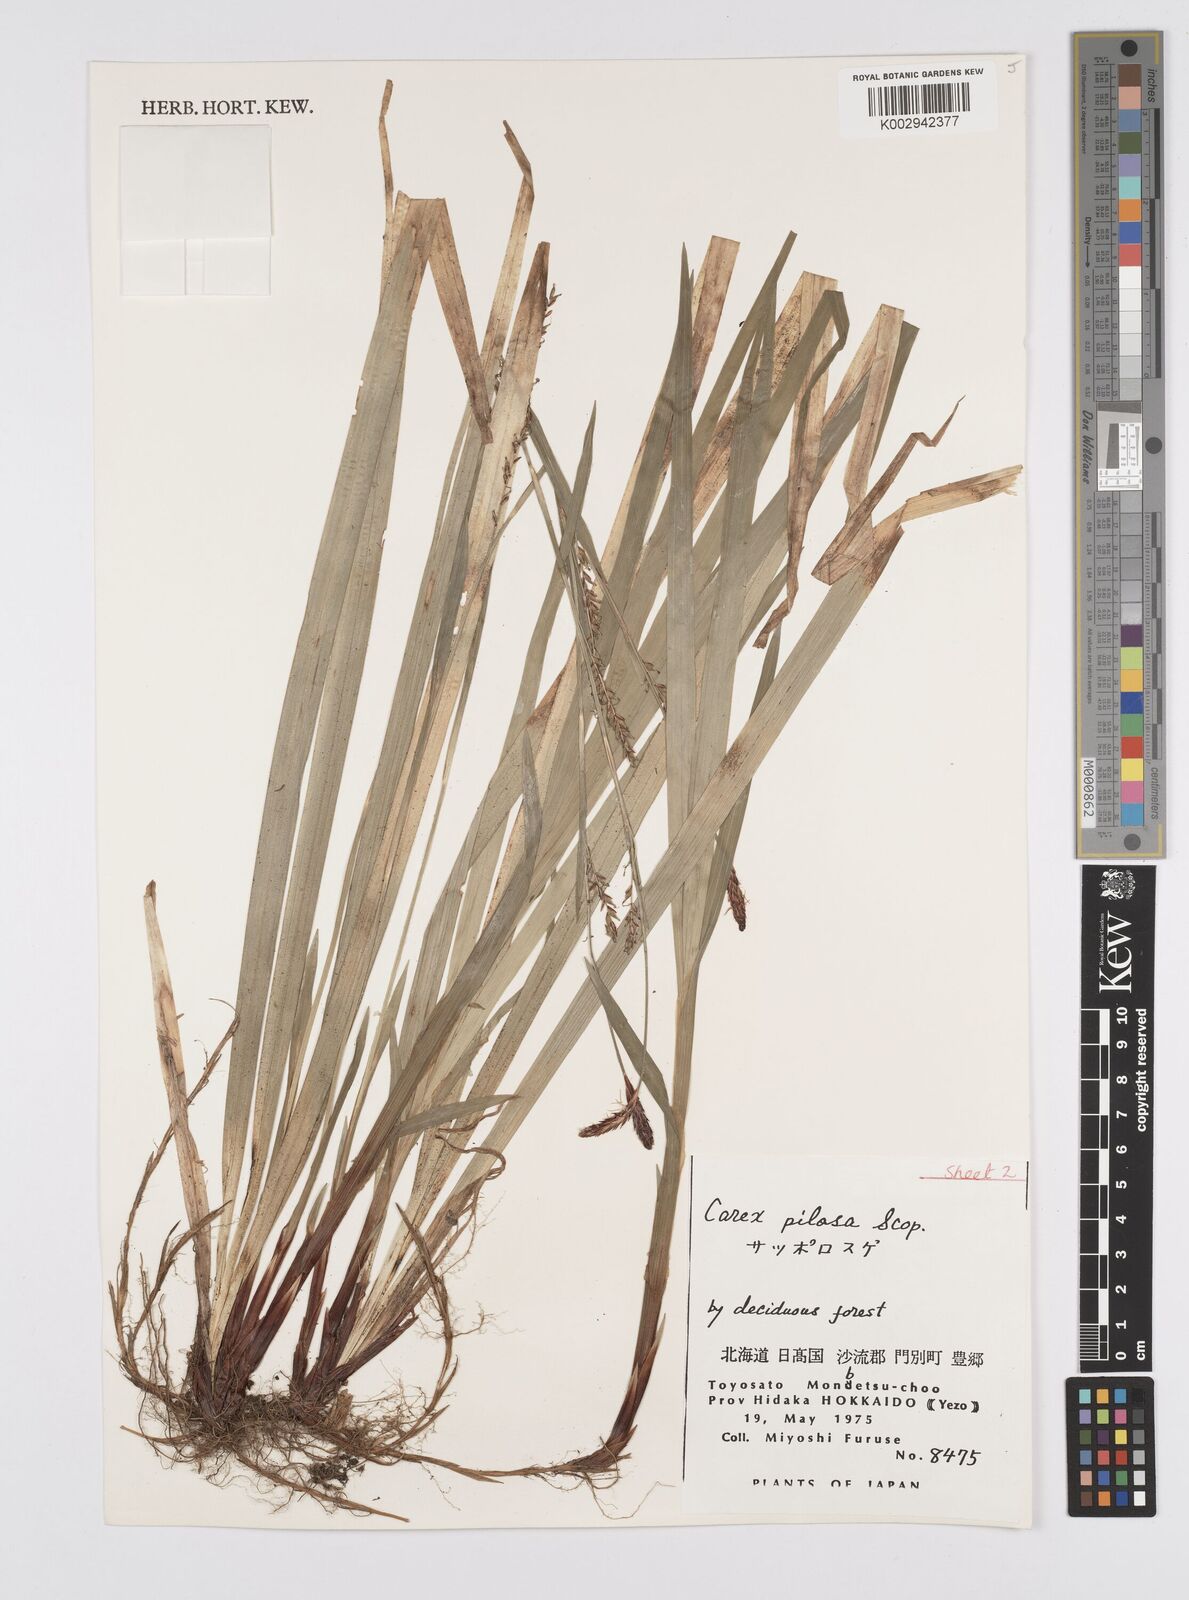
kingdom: Plantae
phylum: Tracheophyta
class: Liliopsida
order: Poales
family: Cyperaceae
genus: Carex
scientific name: Carex pilosa
